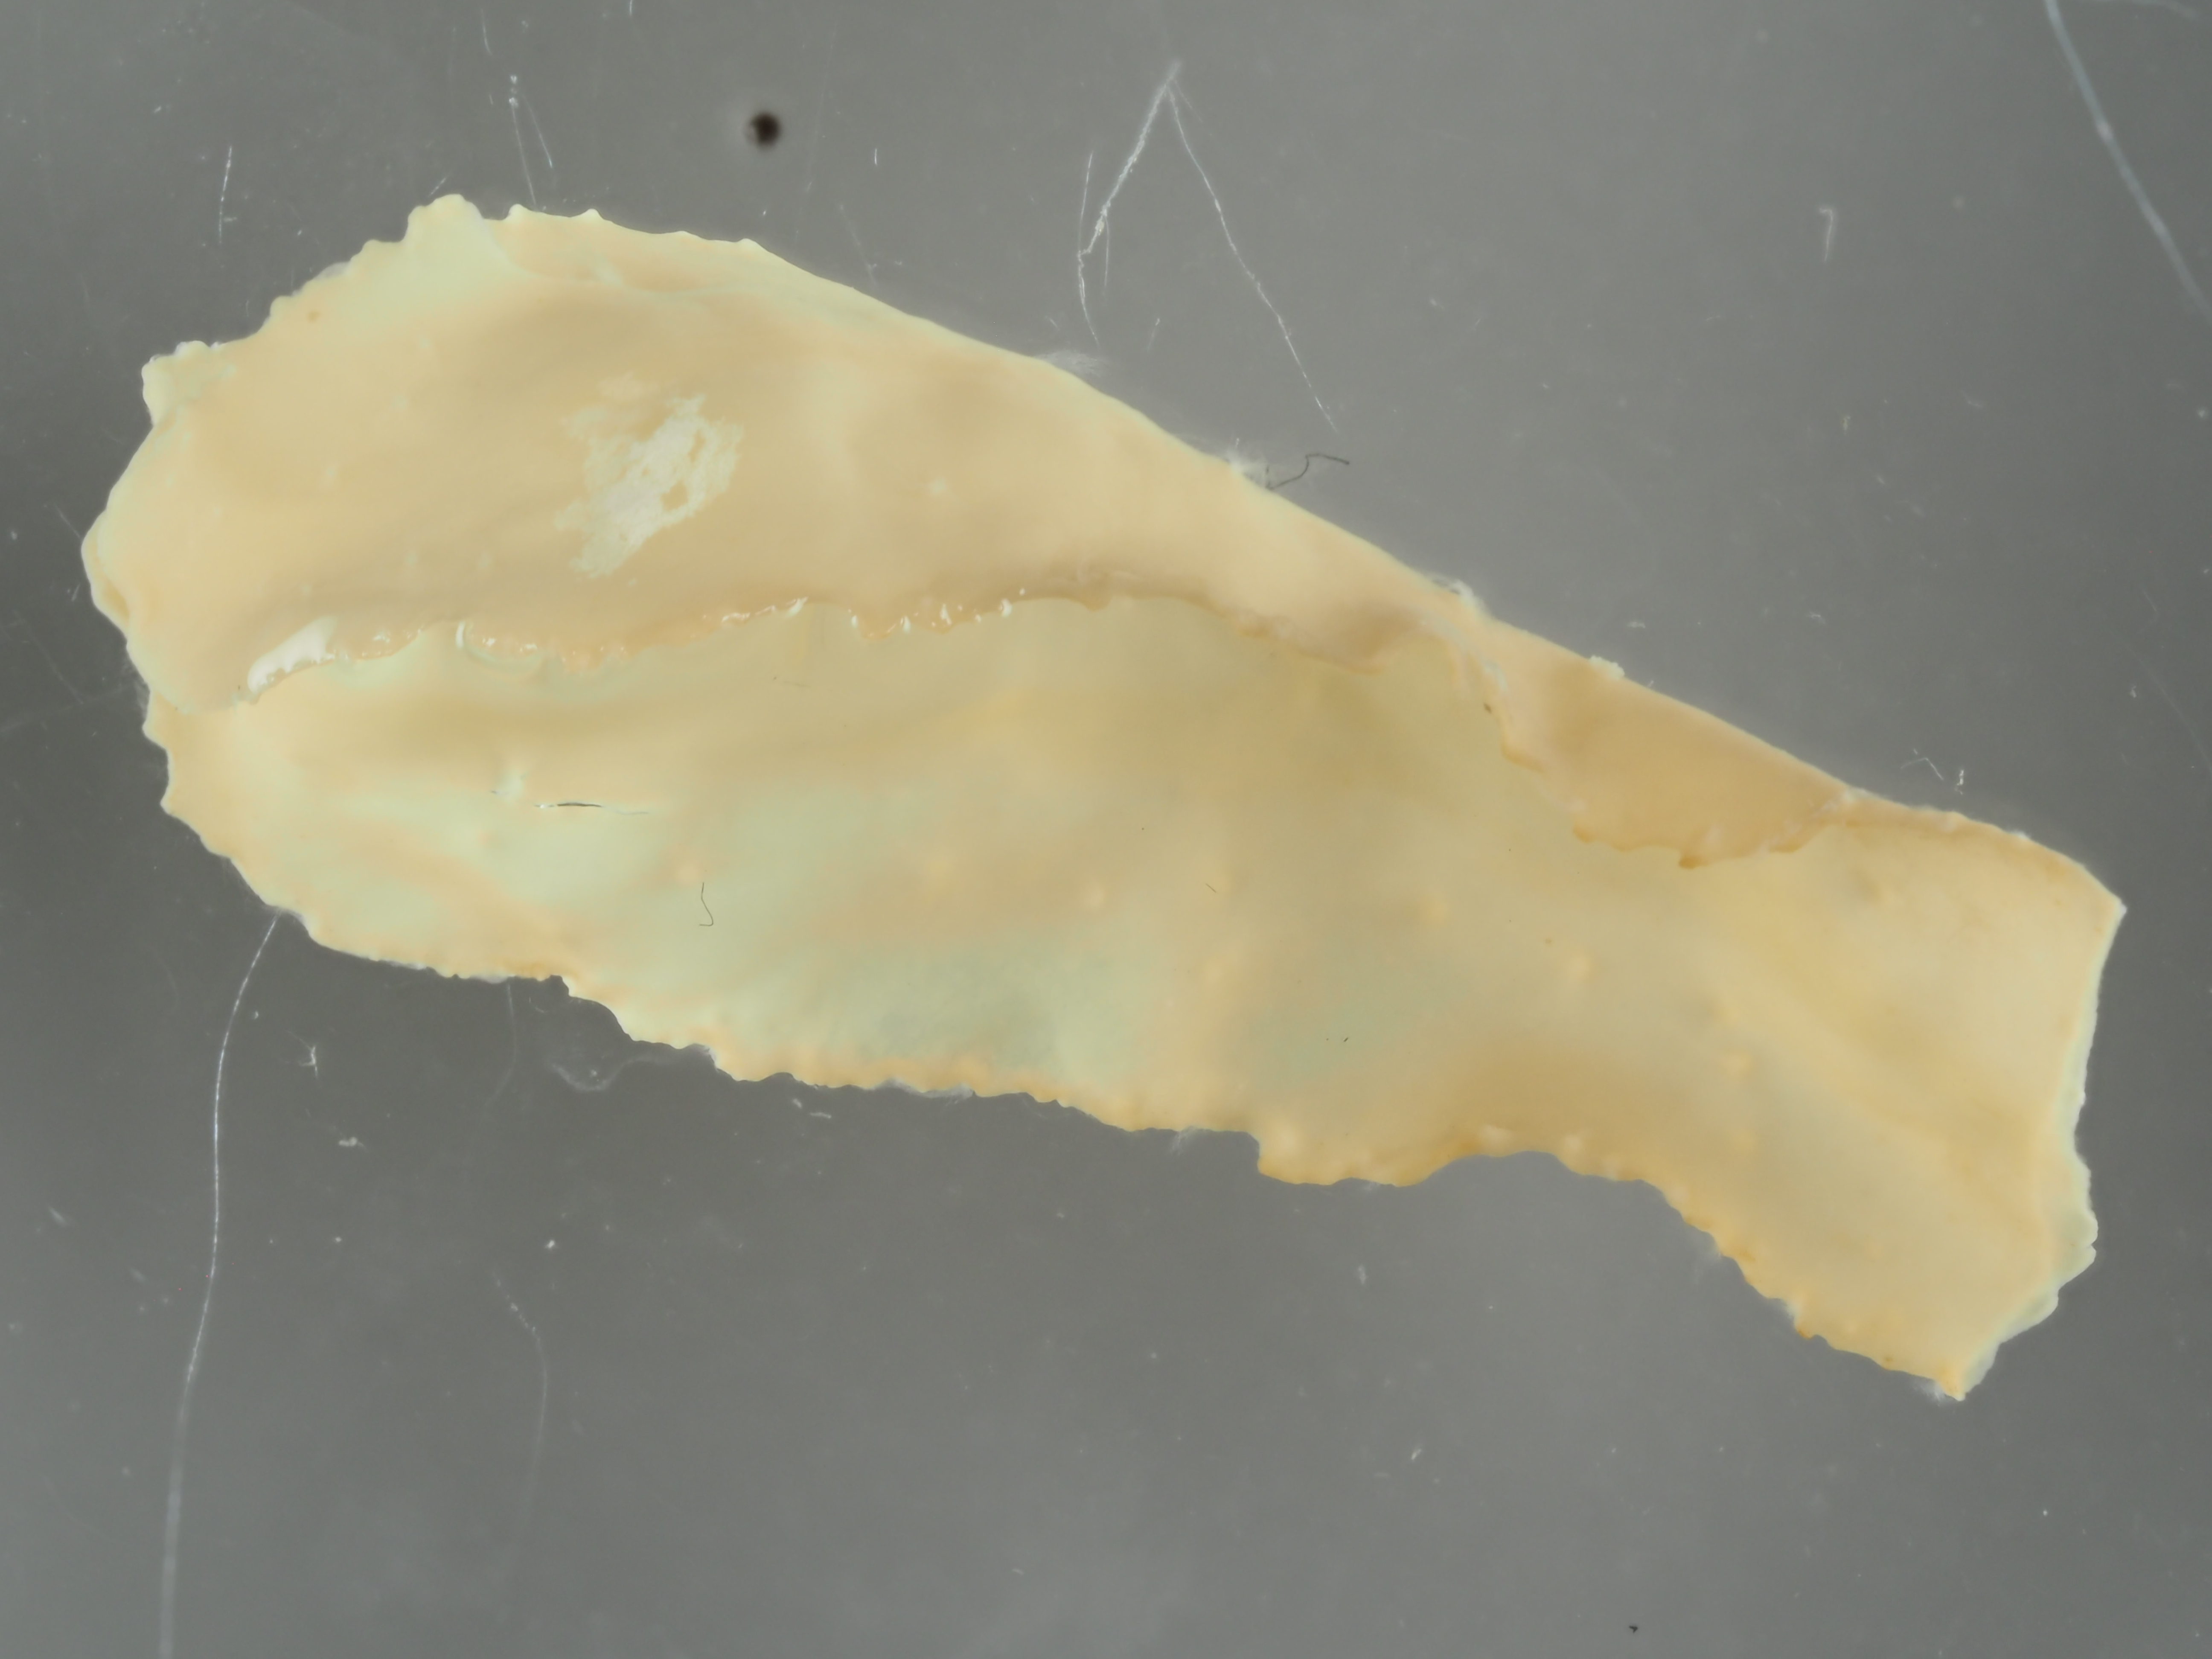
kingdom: Chromista
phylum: Ochrophyta
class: Phaeophyceae
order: Fucales
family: Fucaceae
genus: Fucus
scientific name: Fucus vesiculosus
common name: Bladder wrack
